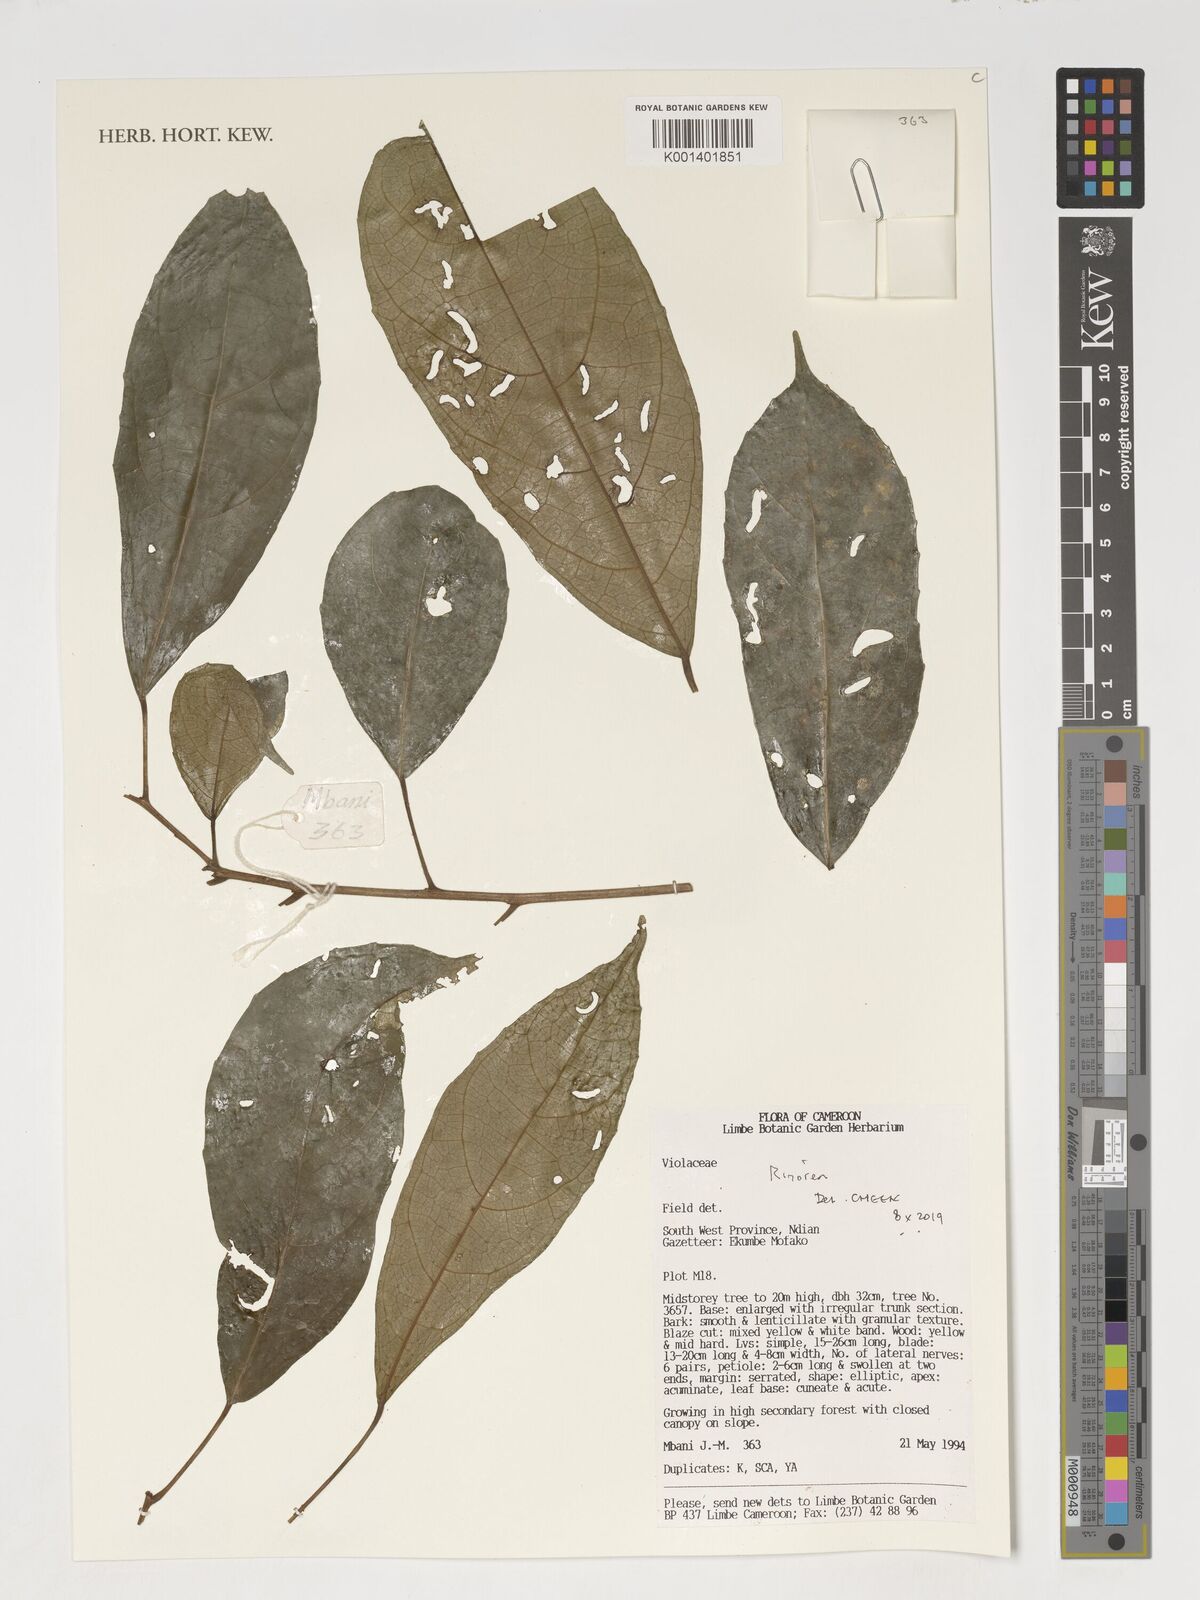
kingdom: Plantae
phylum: Tracheophyta
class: Magnoliopsida
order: Malpighiales
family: Violaceae
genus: Rinorea
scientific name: Rinorea
